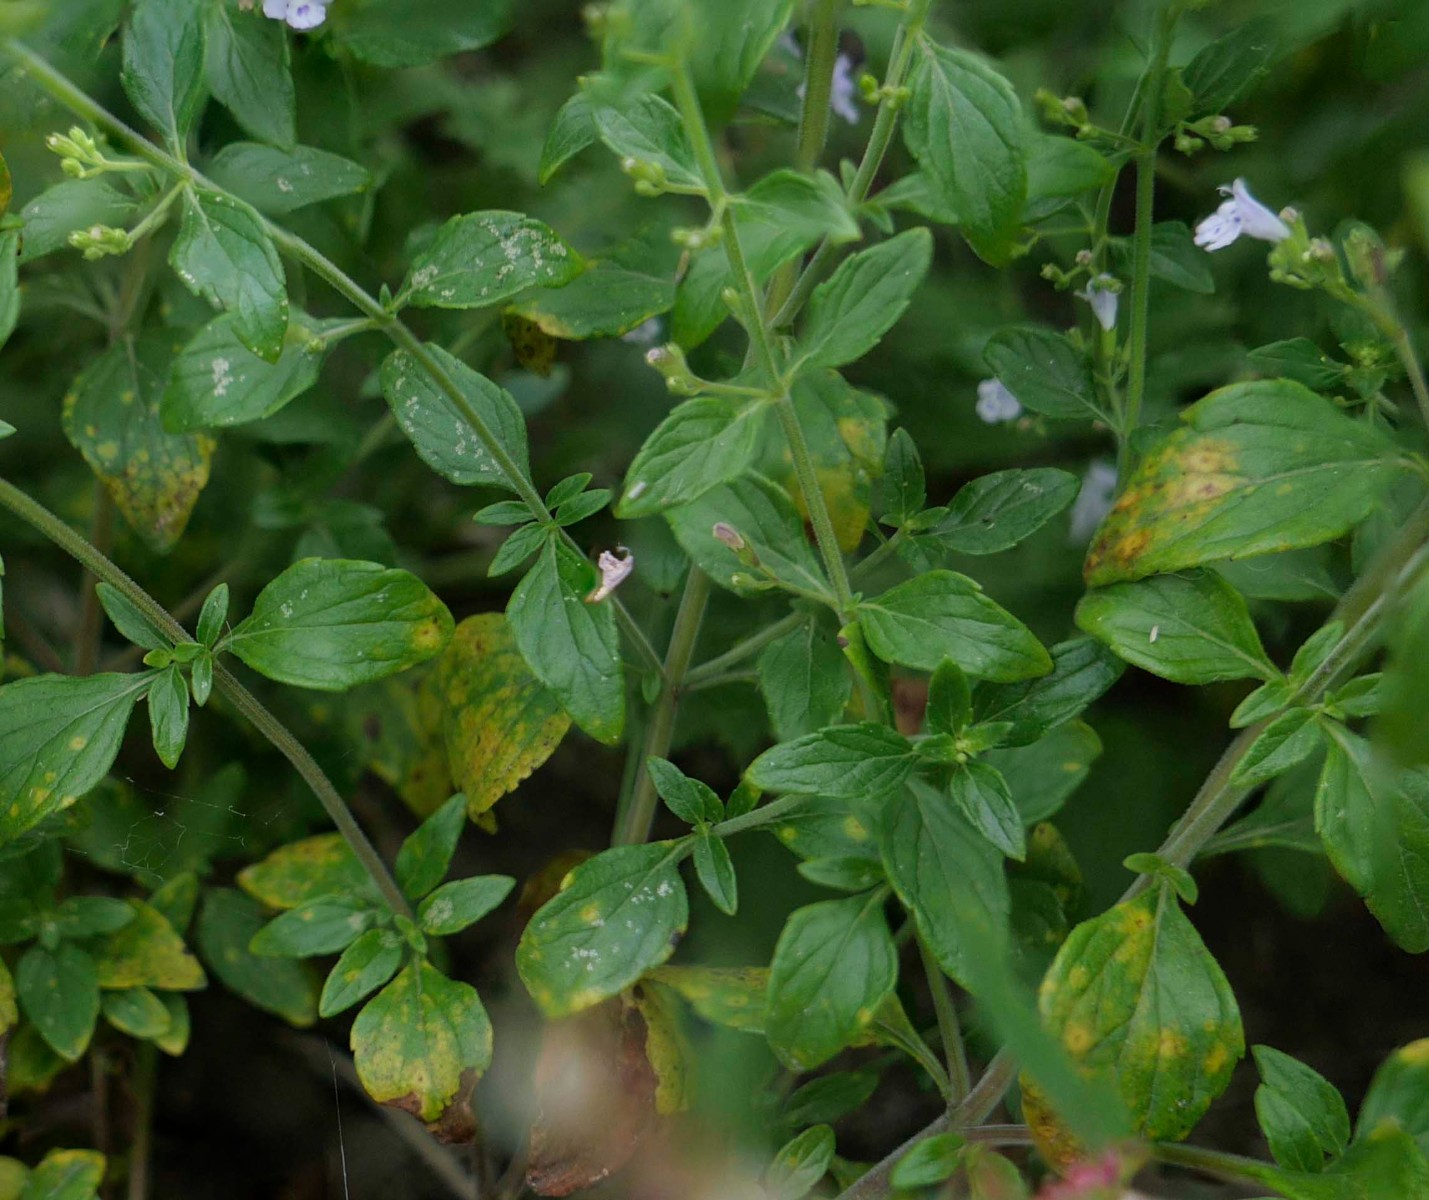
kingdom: Fungi
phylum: Basidiomycota
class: Pucciniomycetes
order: Pucciniales
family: Pucciniaceae
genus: Puccinia
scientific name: Puccinia menthae
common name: Mint rust
